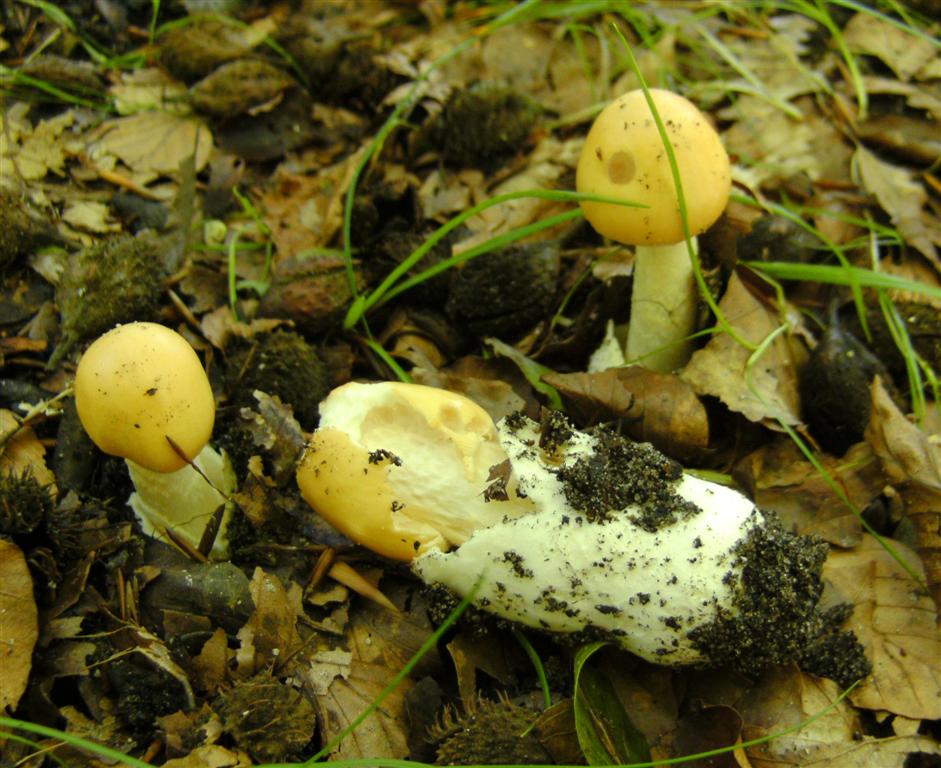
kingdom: Fungi
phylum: Basidiomycota
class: Agaricomycetes
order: Agaricales
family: Amanitaceae
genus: Amanita
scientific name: Amanita contui
